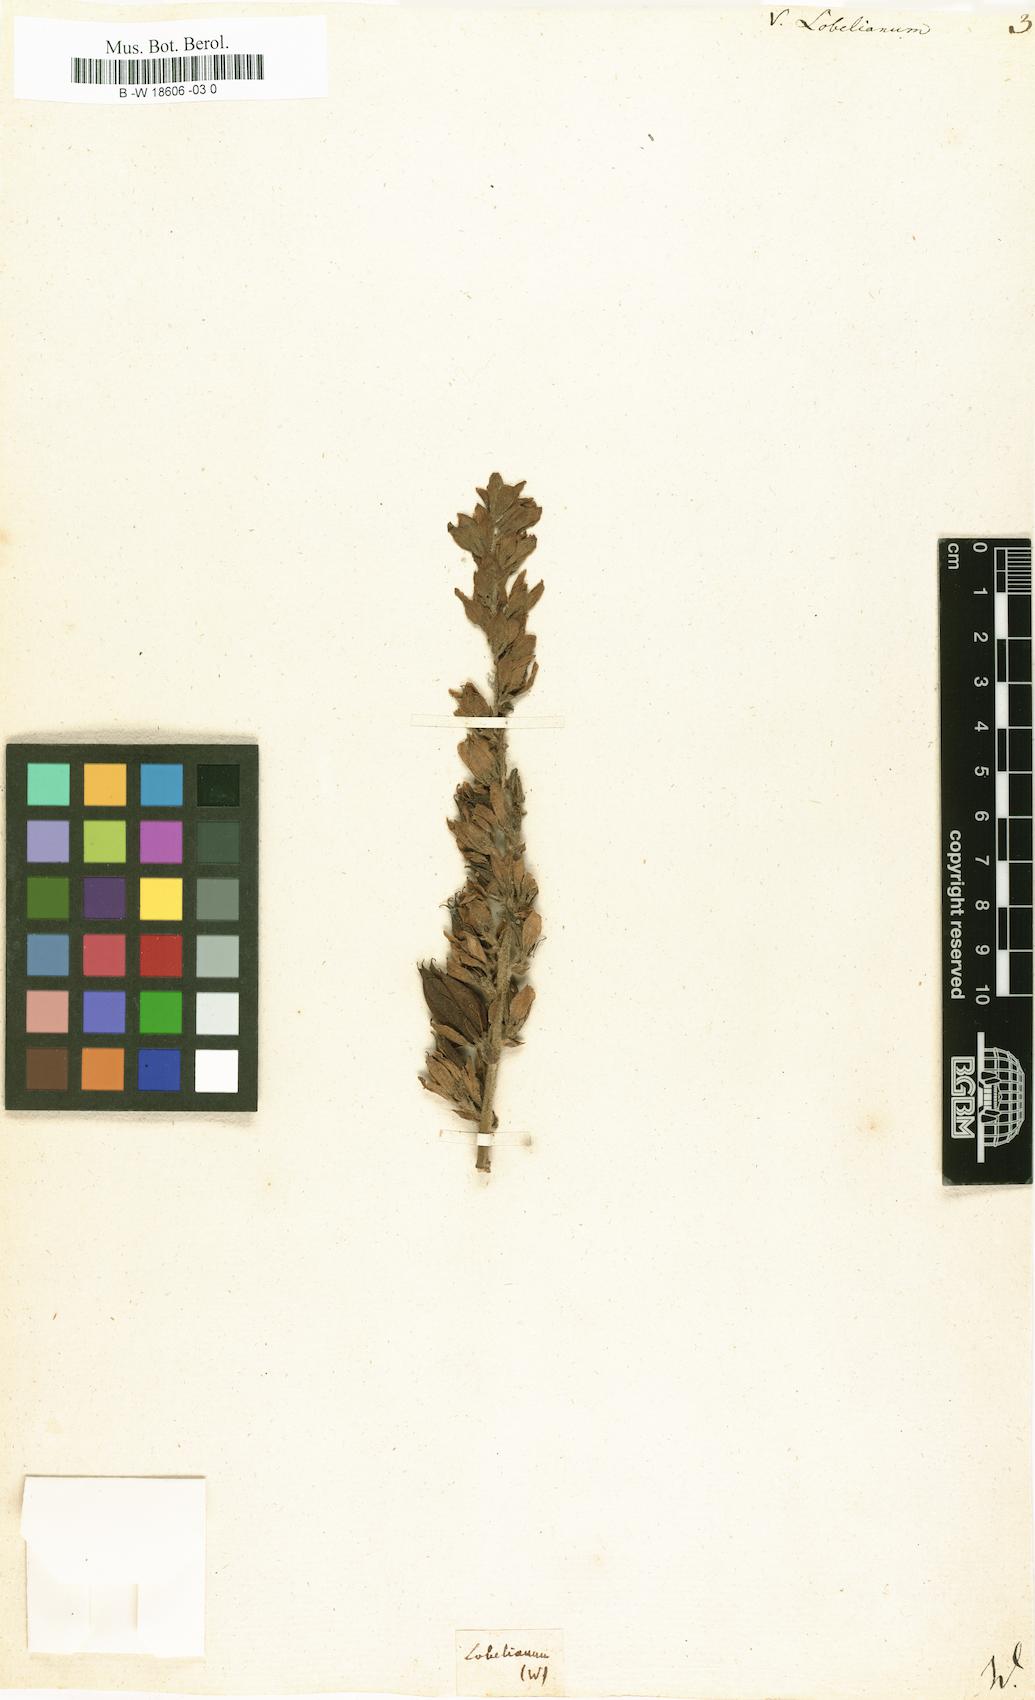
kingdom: Plantae
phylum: Tracheophyta
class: Liliopsida
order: Liliales
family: Melanthiaceae
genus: Veratrum
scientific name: Veratrum lobelianum
